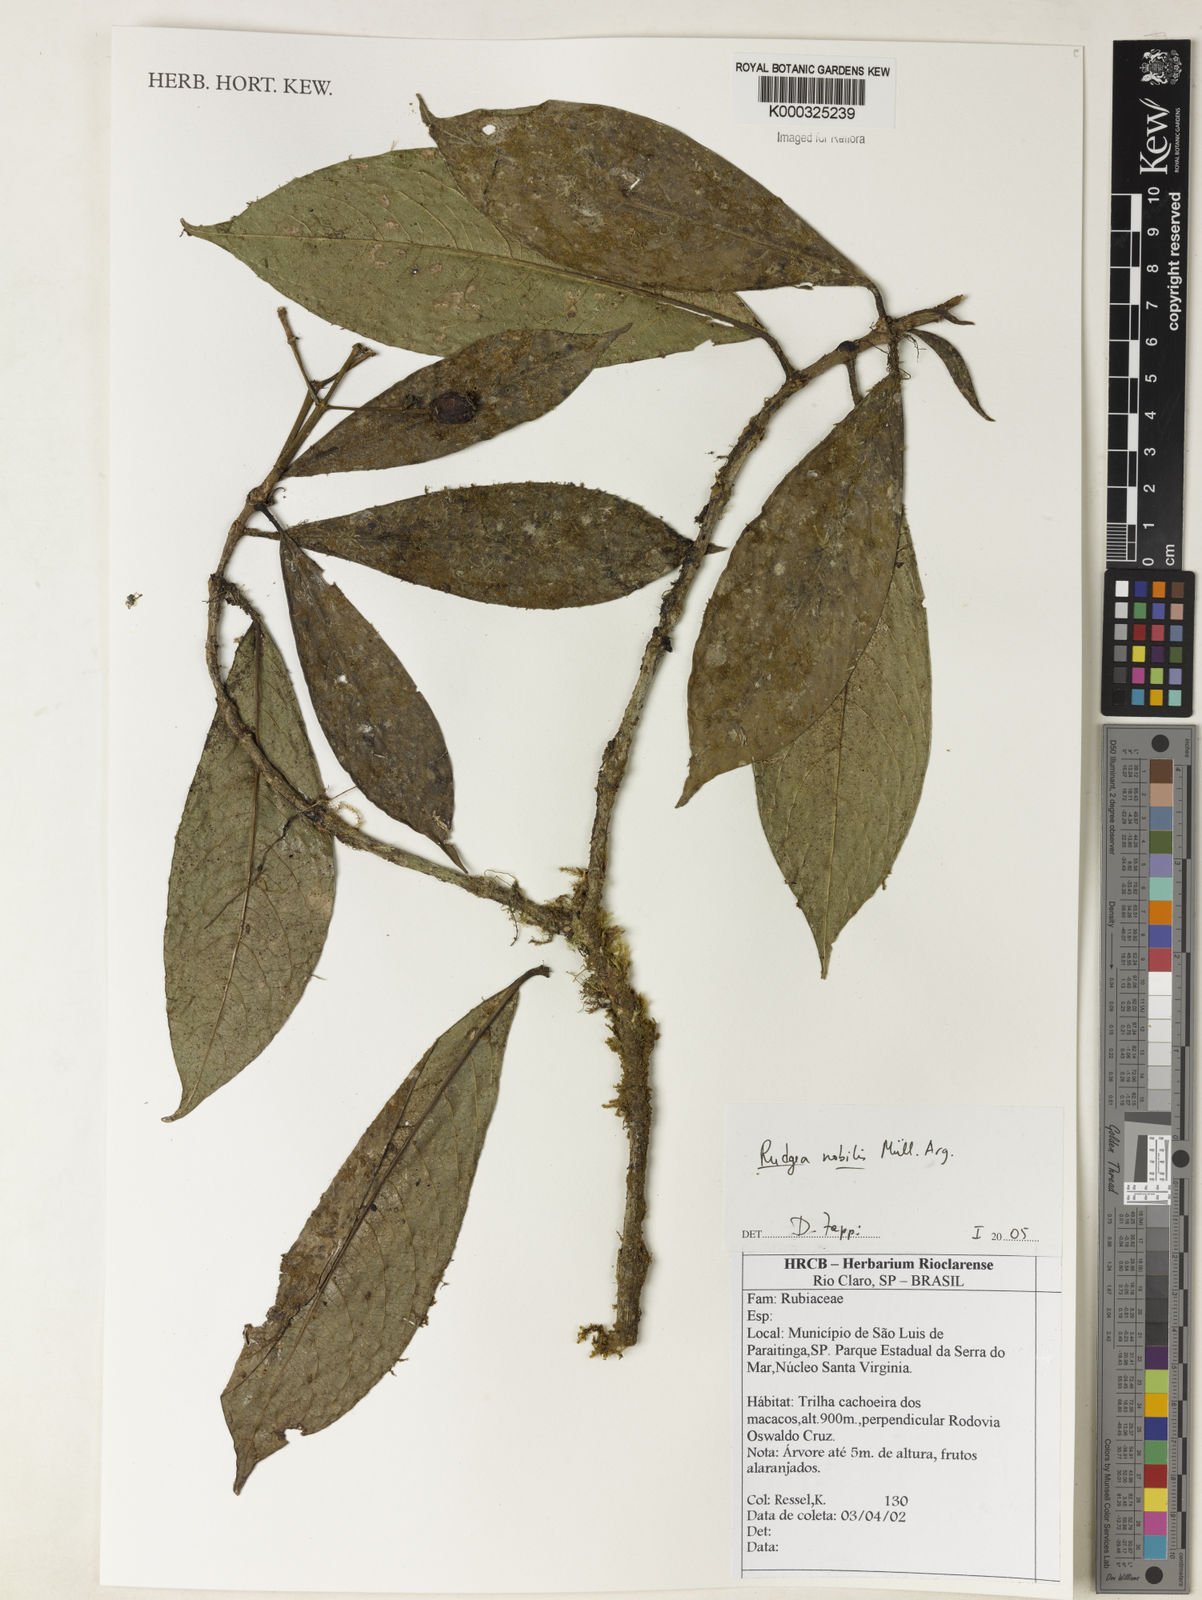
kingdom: Plantae
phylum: Tracheophyta
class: Magnoliopsida
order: Gentianales
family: Rubiaceae
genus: Rudgea
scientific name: Rudgea nobilis
